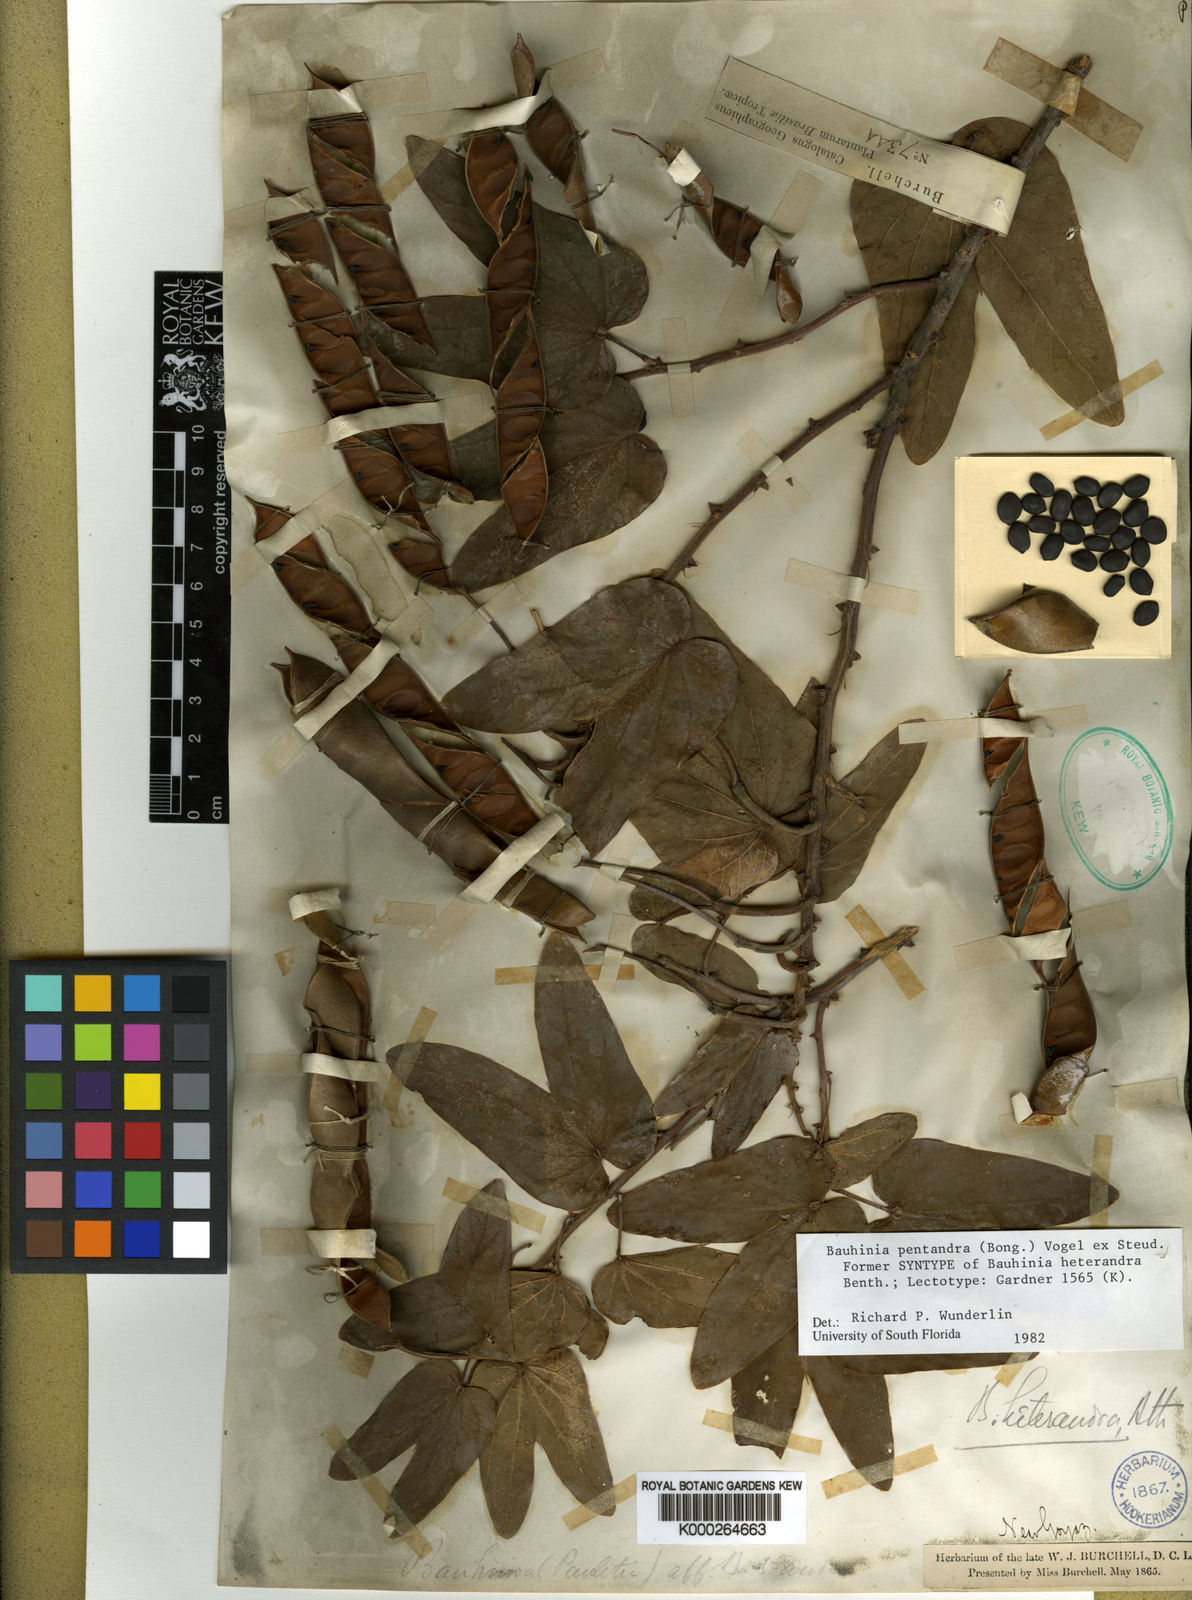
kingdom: Plantae
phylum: Tracheophyta
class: Magnoliopsida
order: Fabales
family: Fabaceae
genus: Bauhinia
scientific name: Bauhinia
